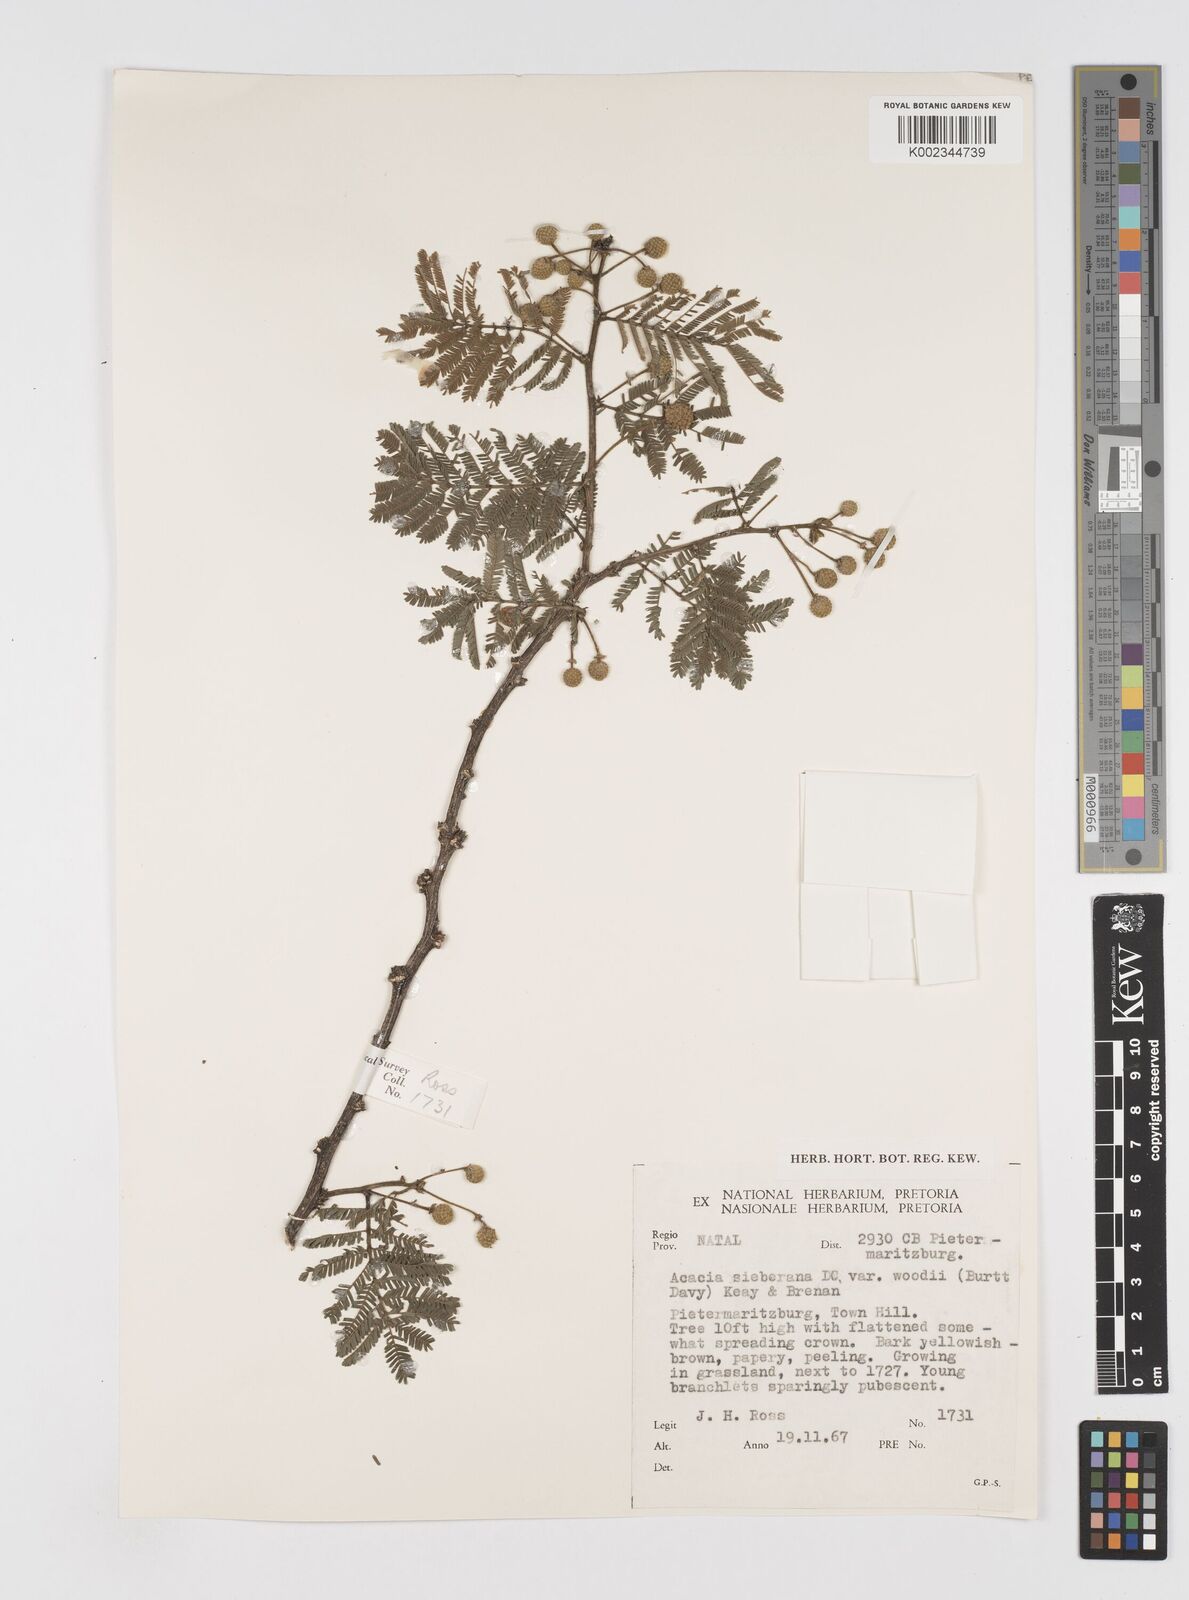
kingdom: Plantae
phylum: Tracheophyta
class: Magnoliopsida
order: Fabales
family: Fabaceae
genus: Acacia
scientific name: Acacia hamiltoniana
